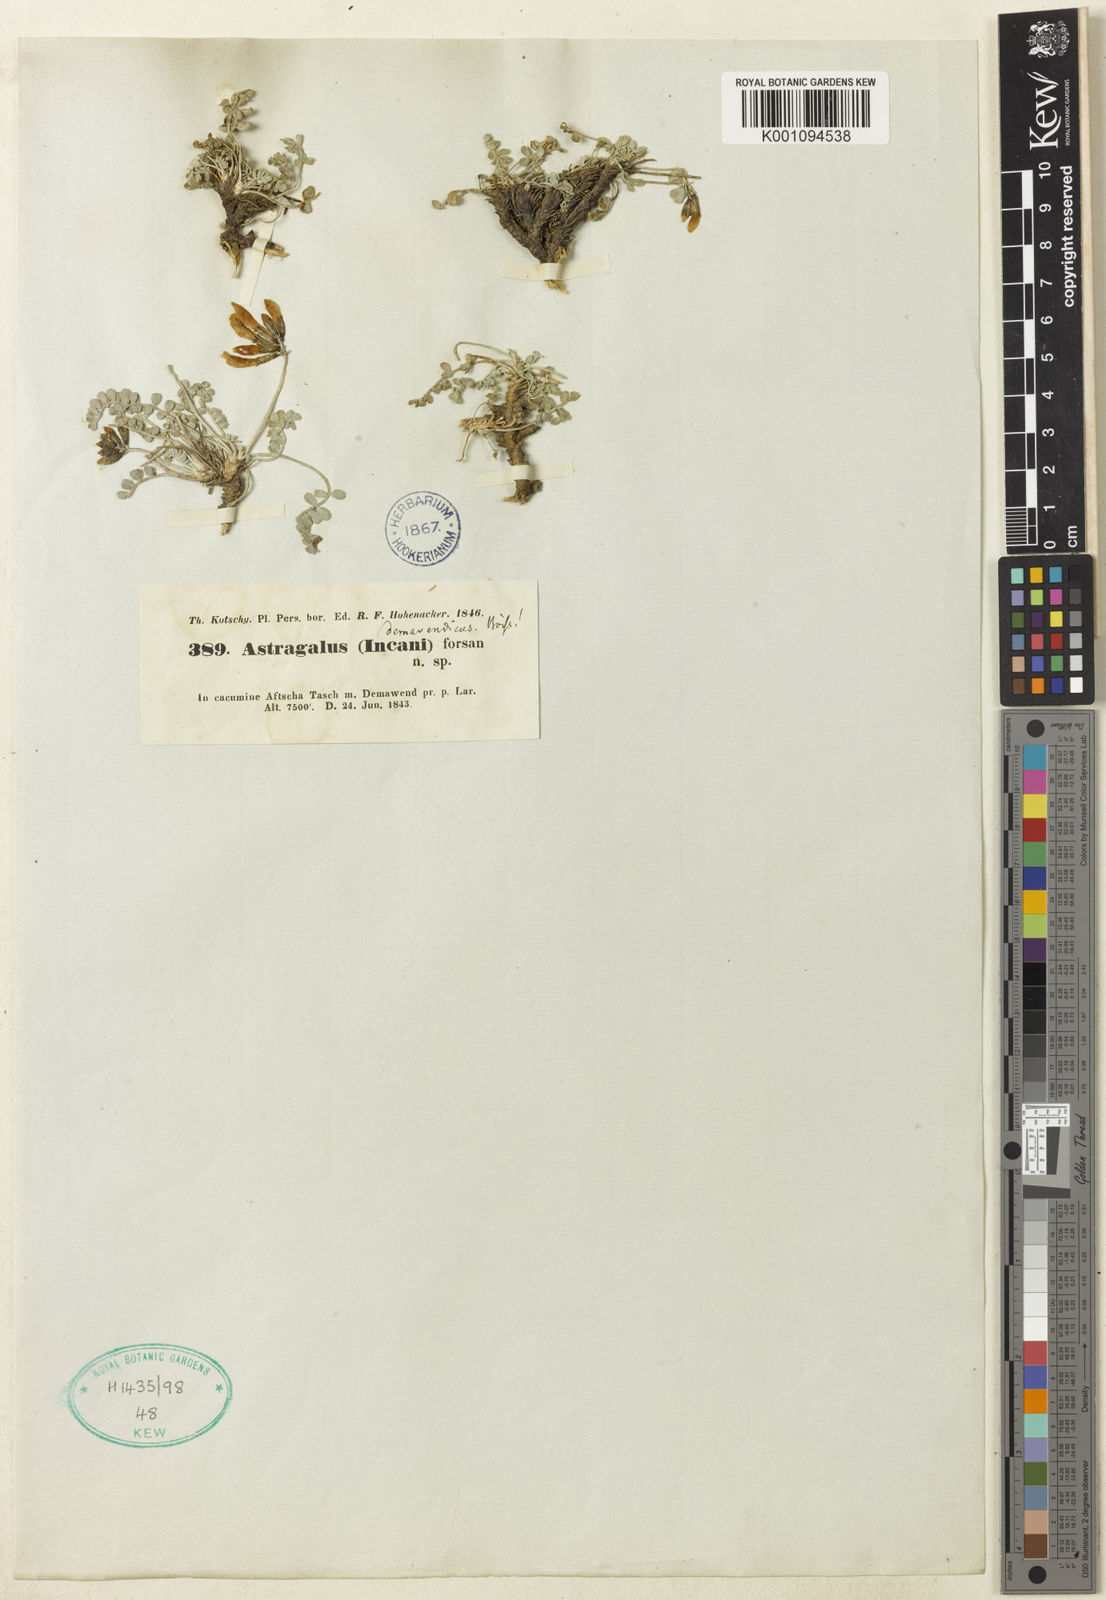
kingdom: Plantae
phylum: Tracheophyta
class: Magnoliopsida
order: Fabales
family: Fabaceae
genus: Astragalus
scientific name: Astragalus
